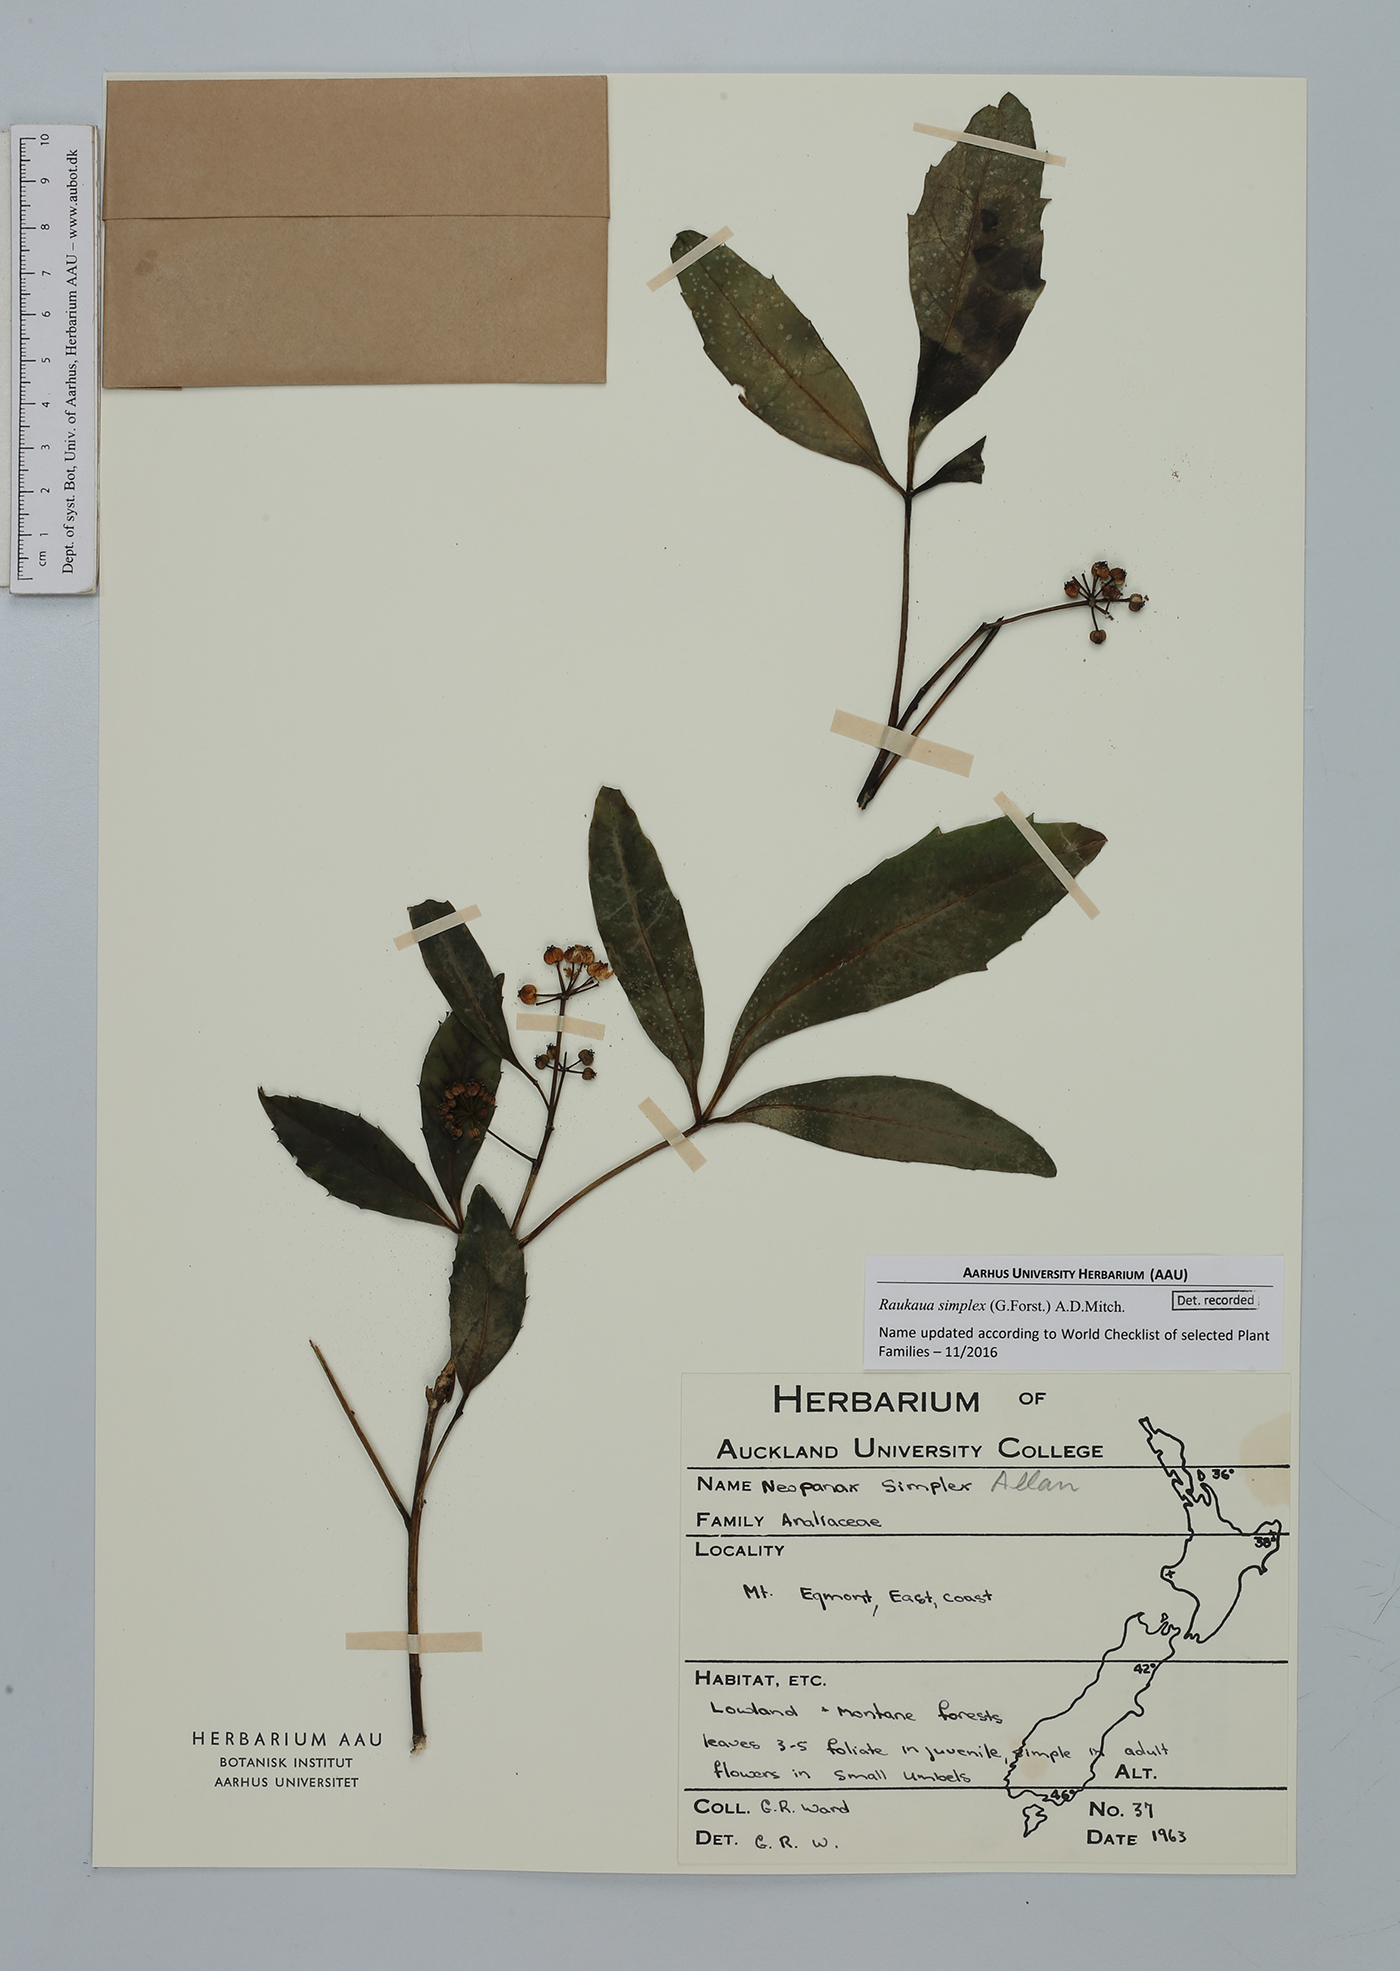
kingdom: Plantae
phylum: Tracheophyta
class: Magnoliopsida
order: Apiales
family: Araliaceae
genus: Raukaua
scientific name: Raukaua simplex
